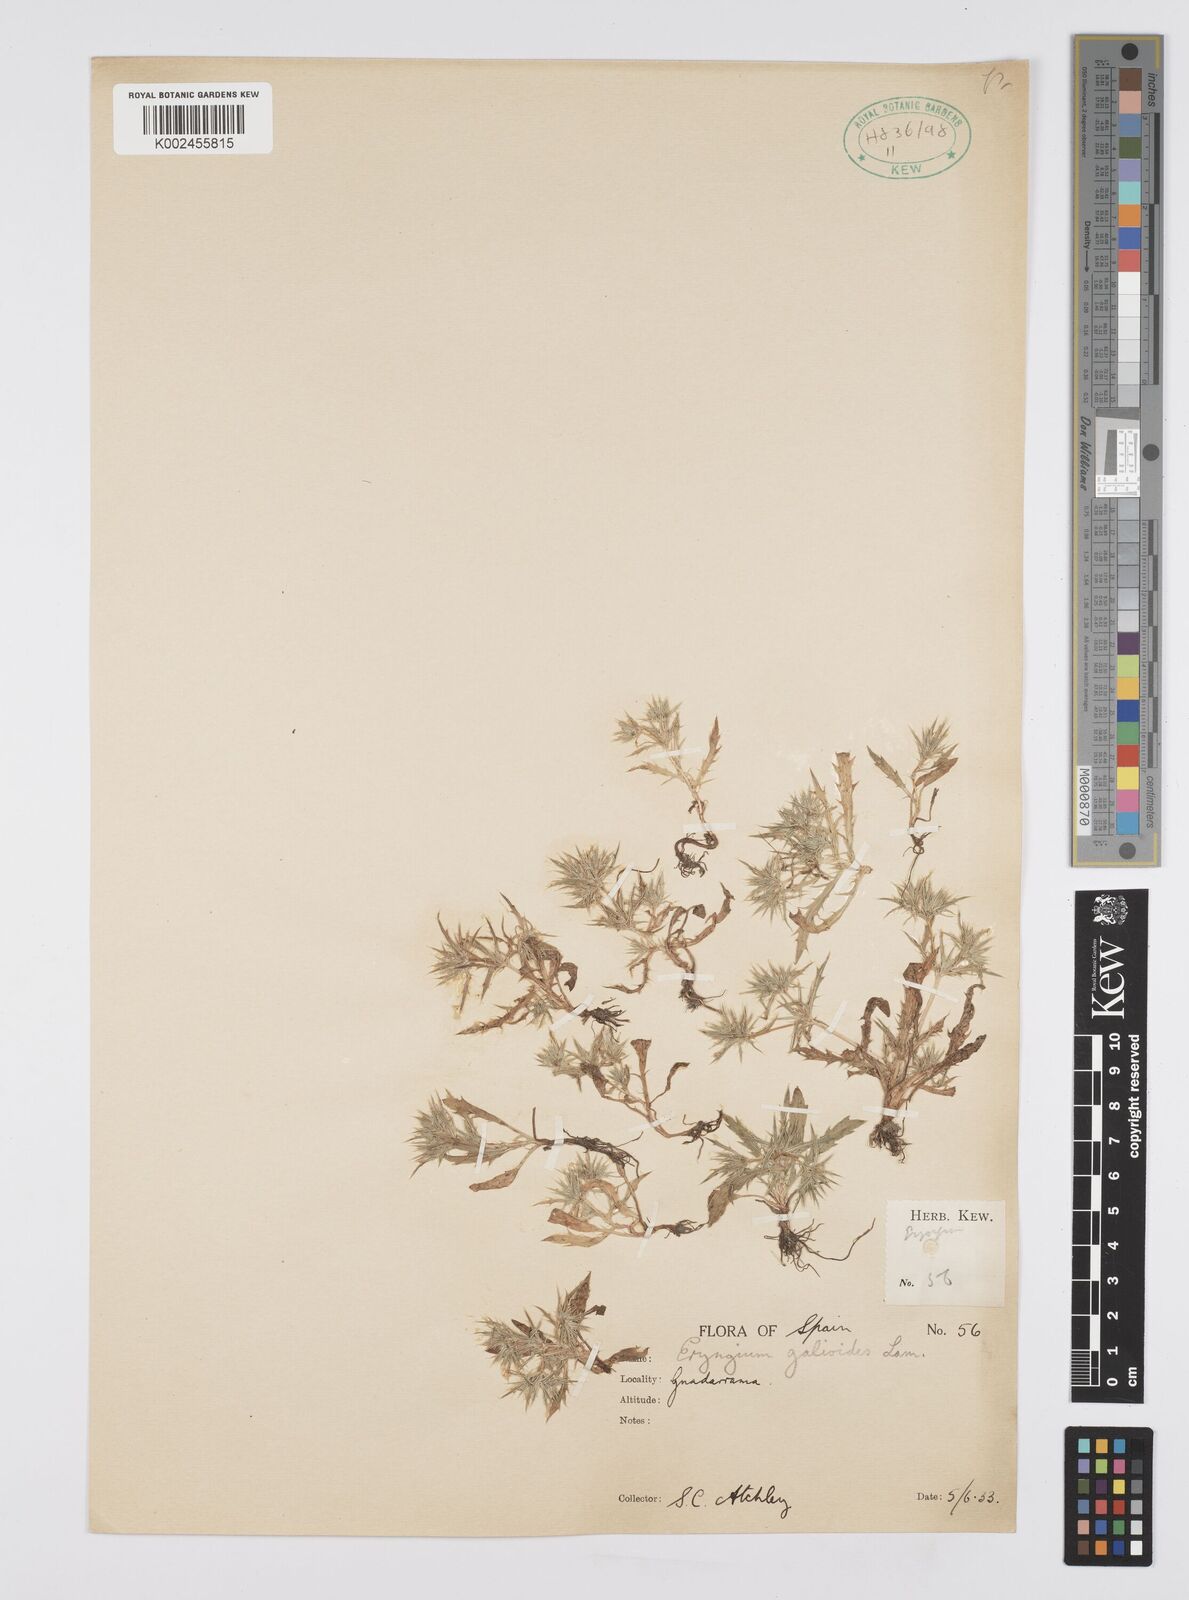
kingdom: Plantae
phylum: Tracheophyta
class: Magnoliopsida
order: Apiales
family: Apiaceae
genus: Eryngium
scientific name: Eryngium galioides
